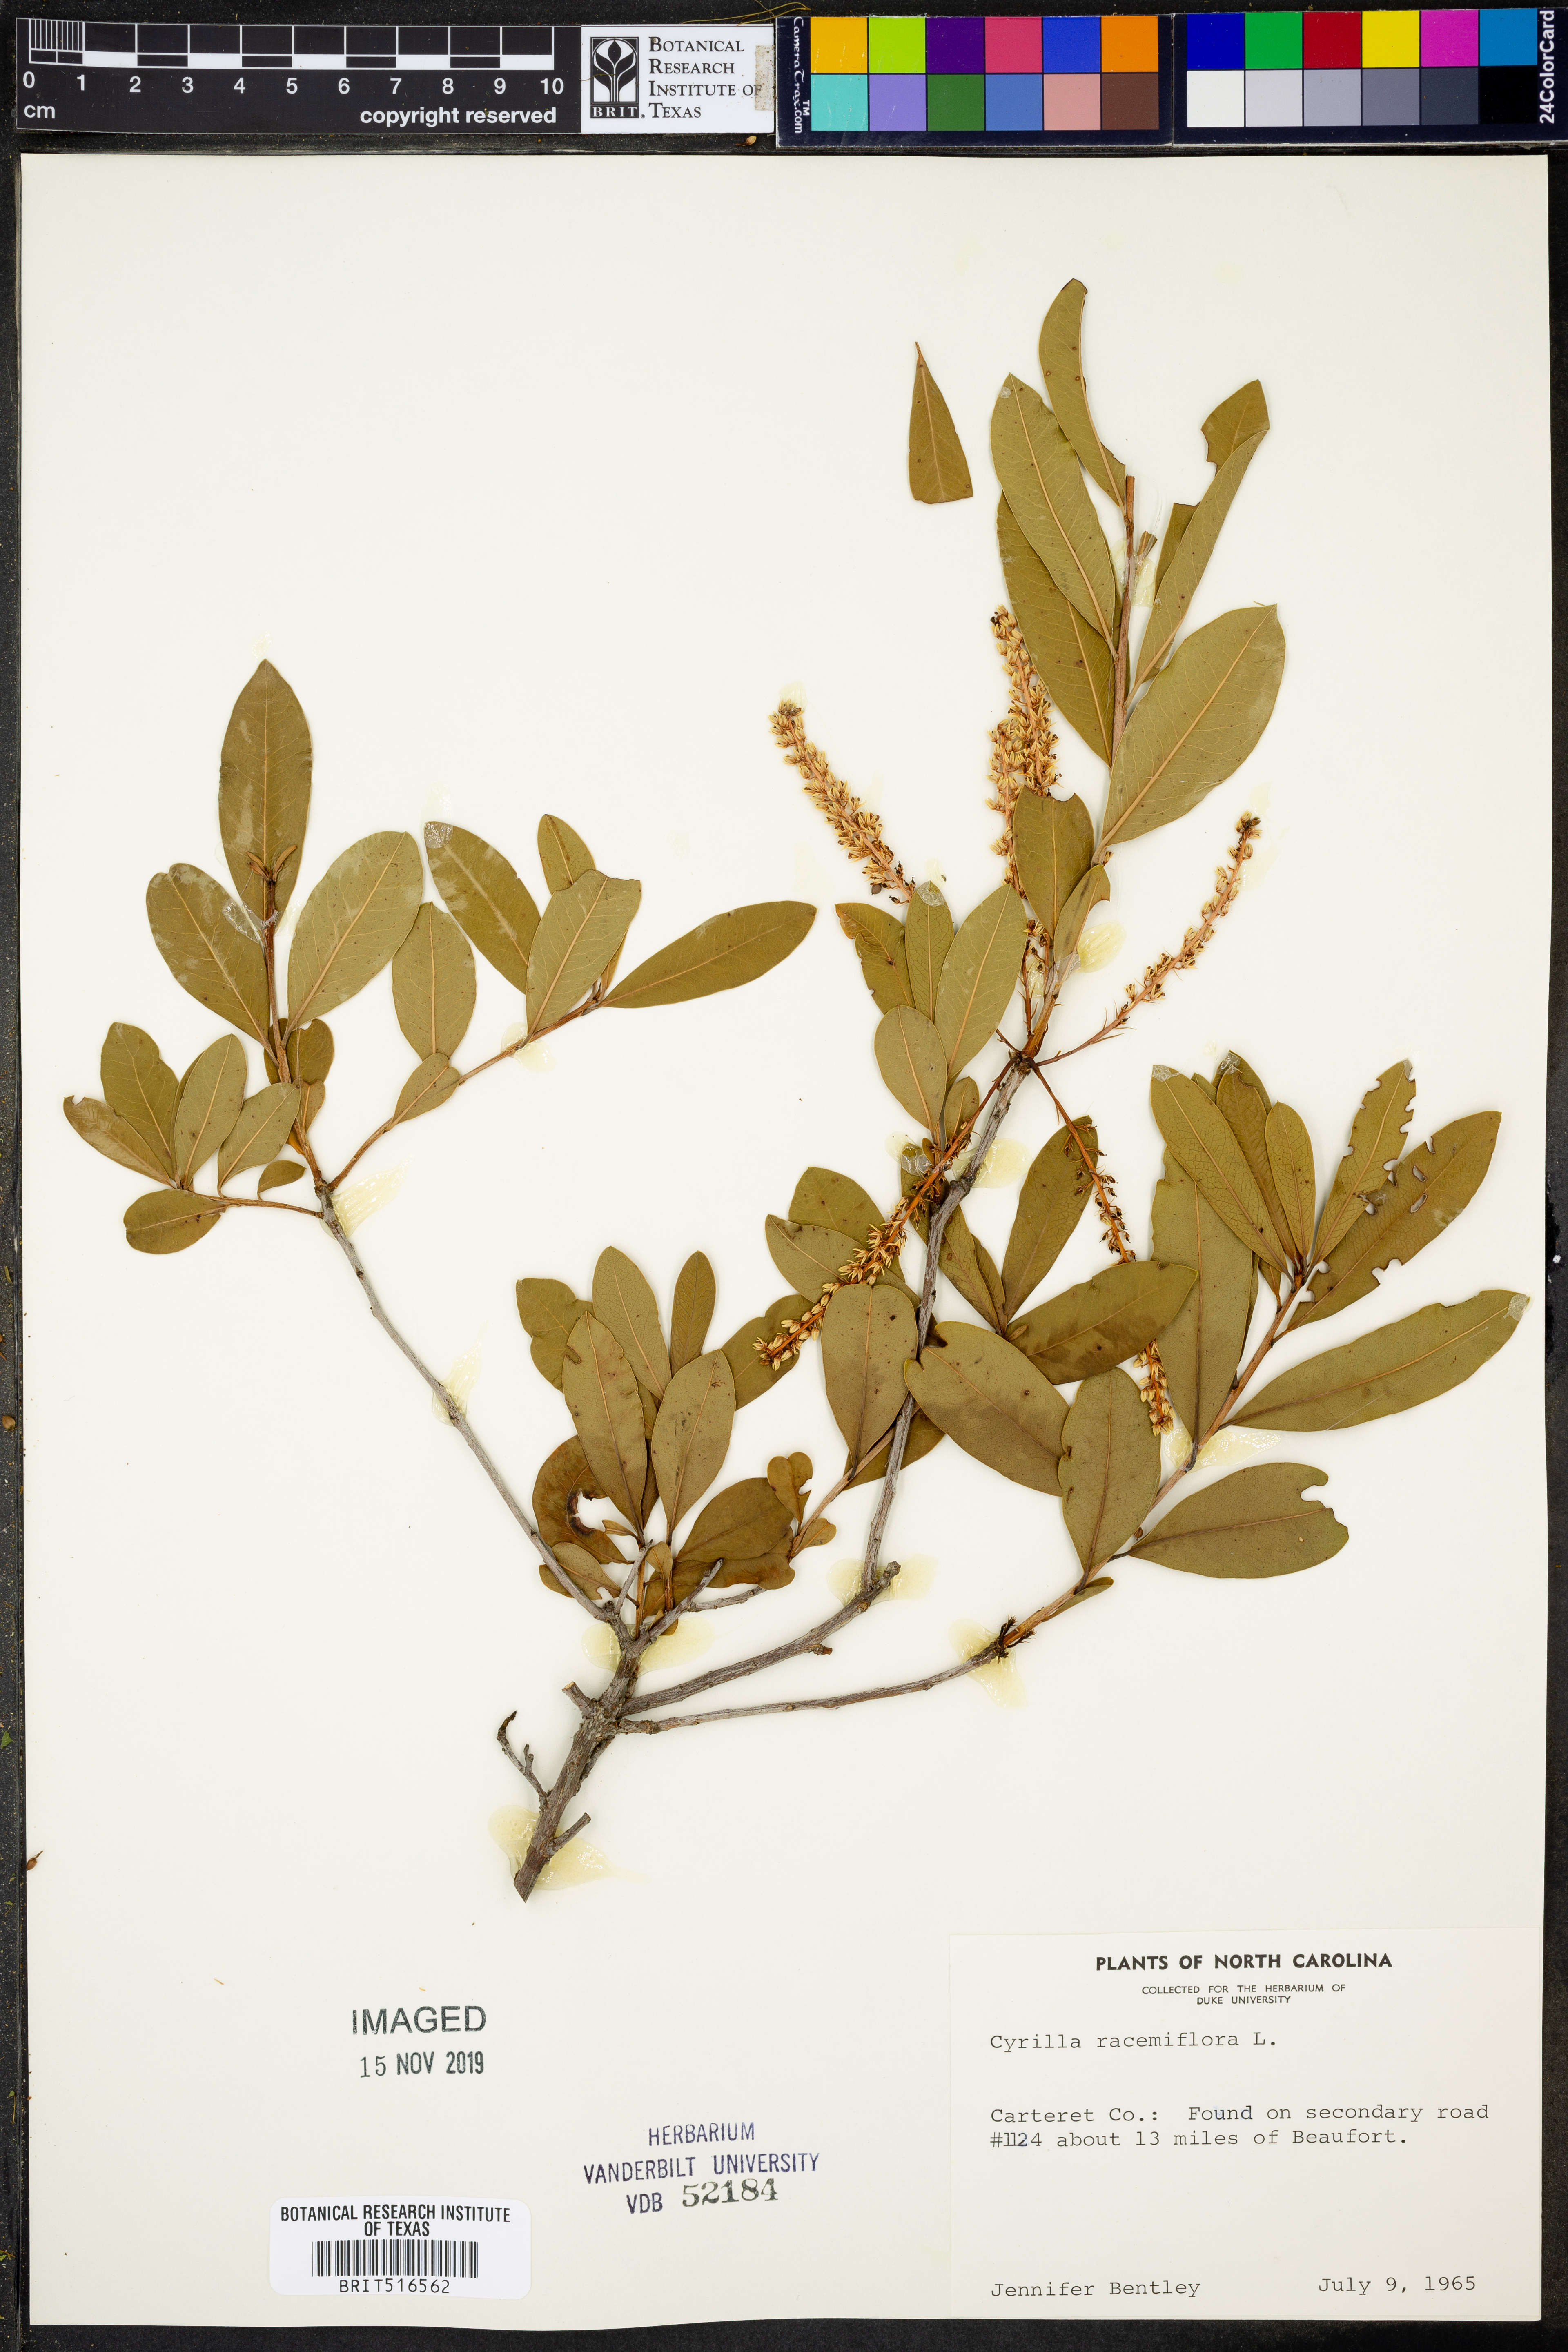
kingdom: Plantae
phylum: Tracheophyta
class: Magnoliopsida
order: Ericales
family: Cyrillaceae
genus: Cyrilla
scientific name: Cyrilla racemiflora
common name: Black titi
